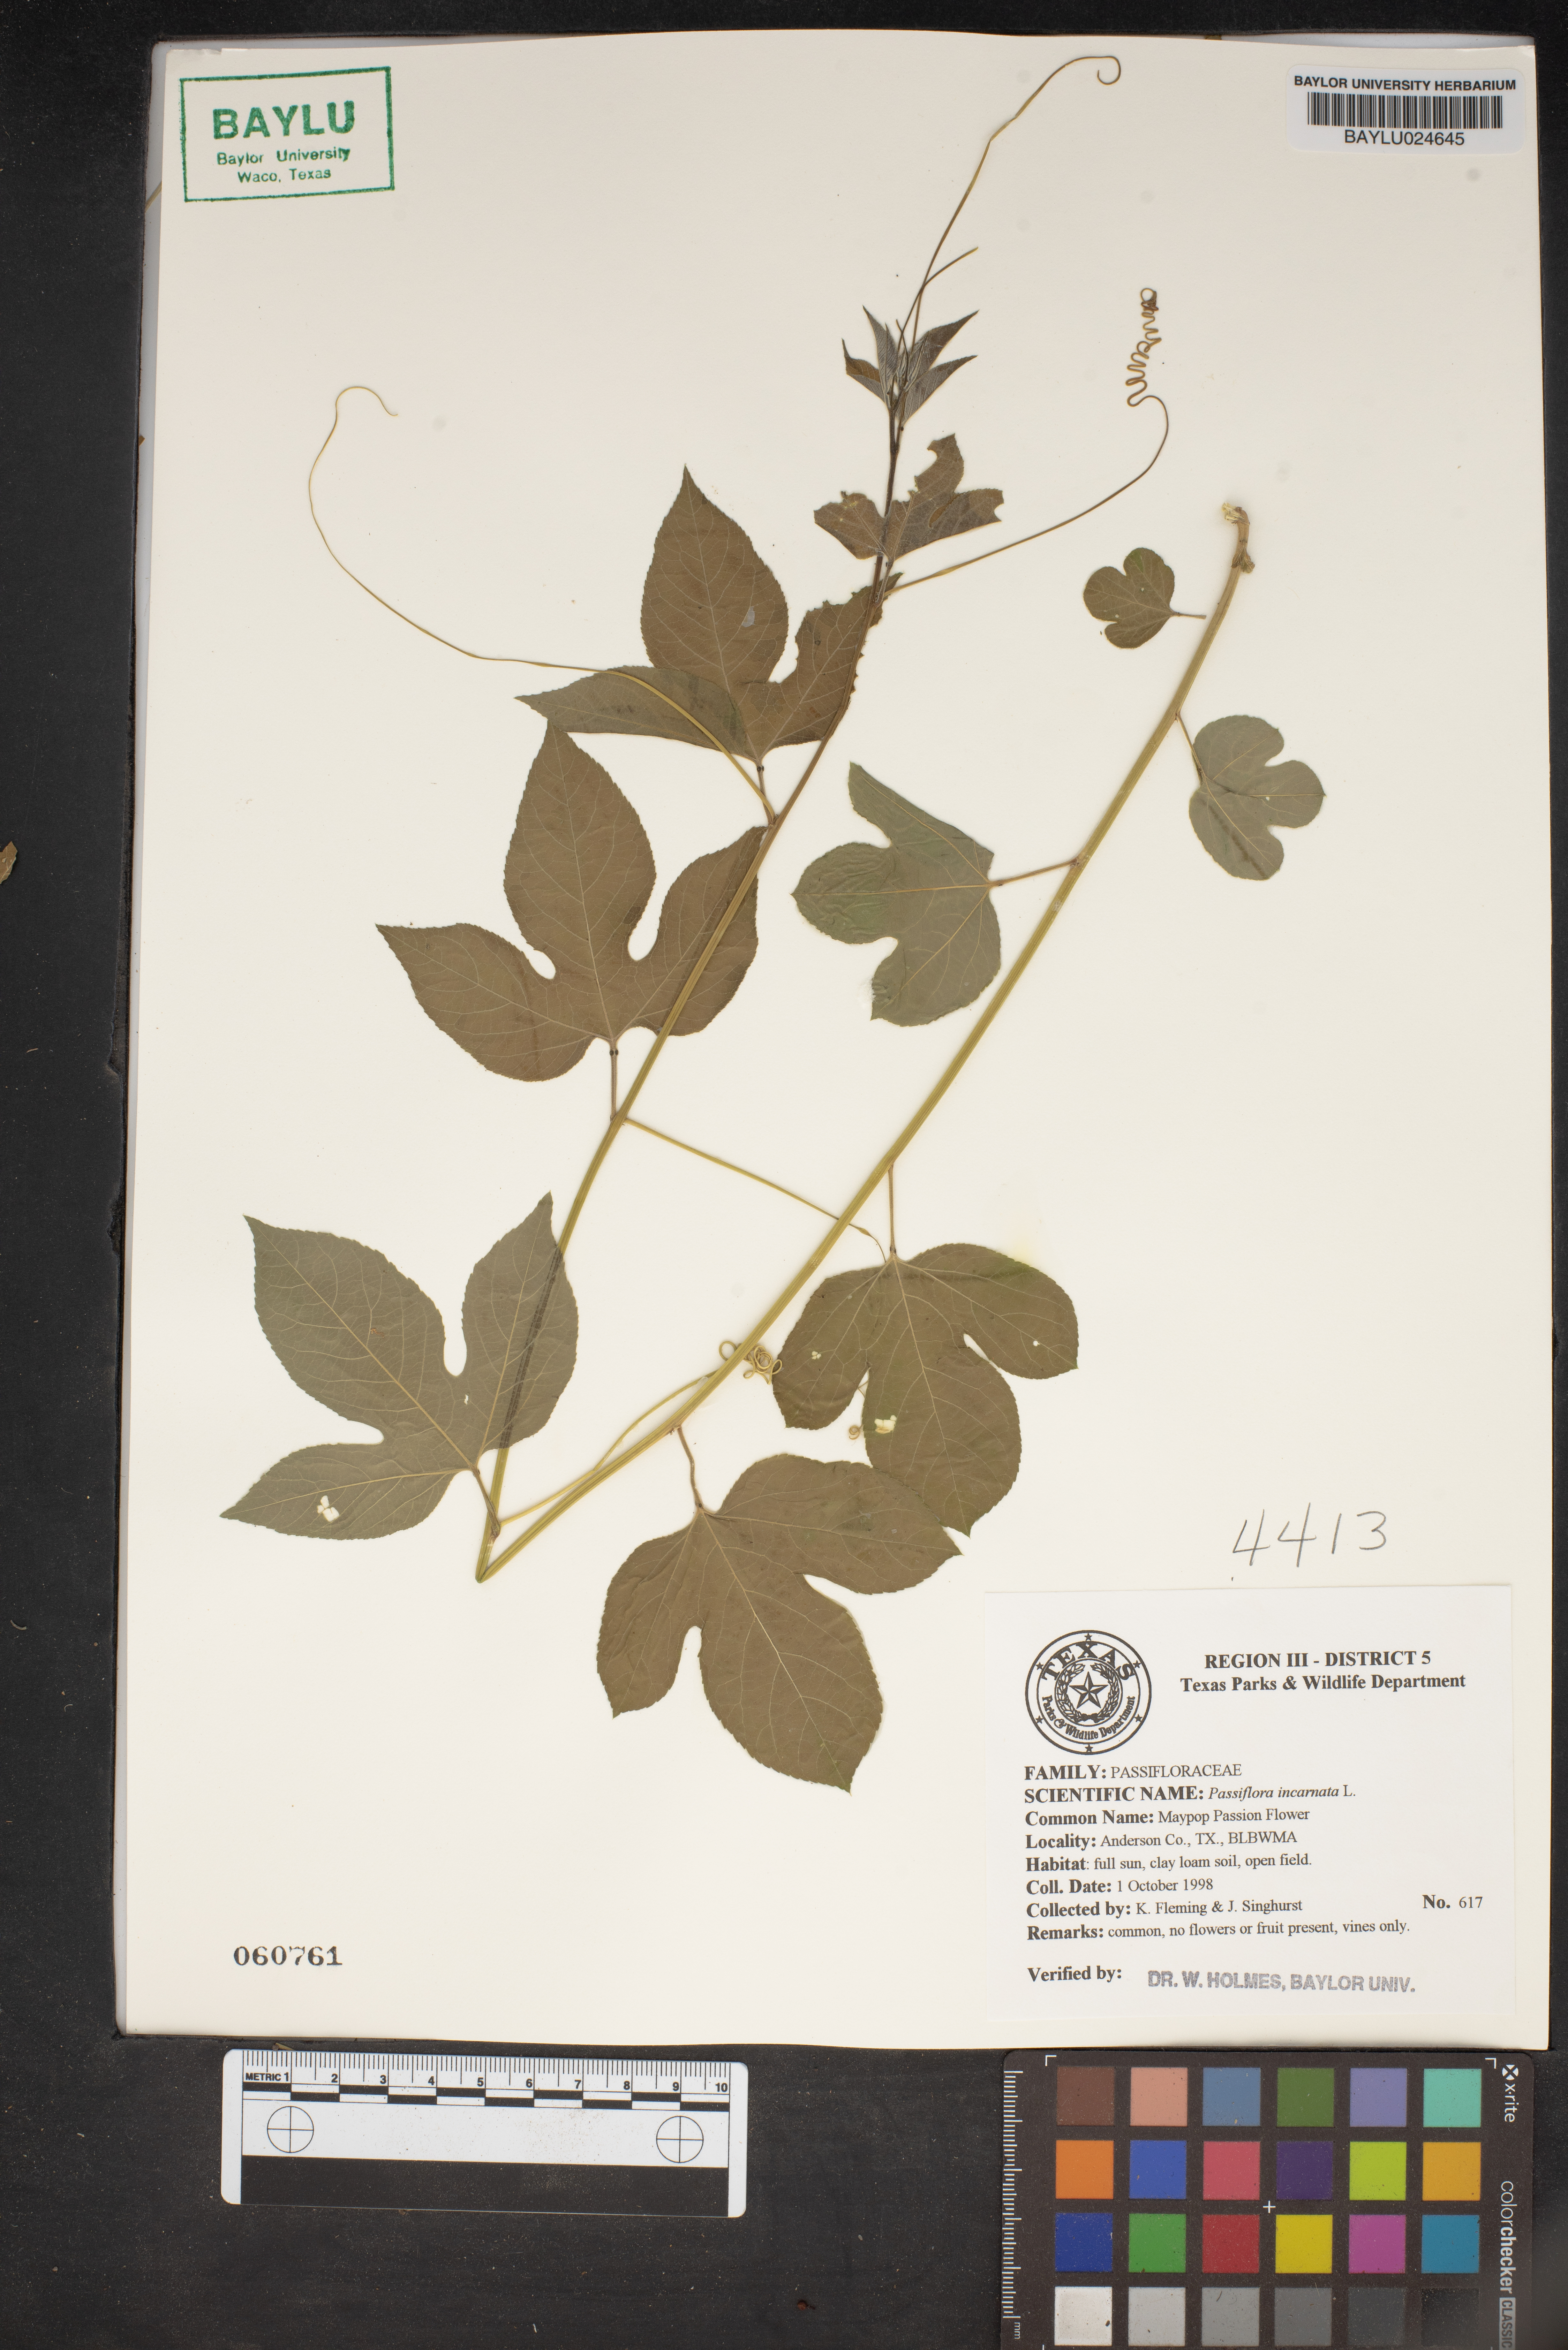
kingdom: Plantae
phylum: Tracheophyta
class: Magnoliopsida
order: Malpighiales
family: Passifloraceae
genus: Passiflora
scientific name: Passiflora incarnata
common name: Apricot-vine
